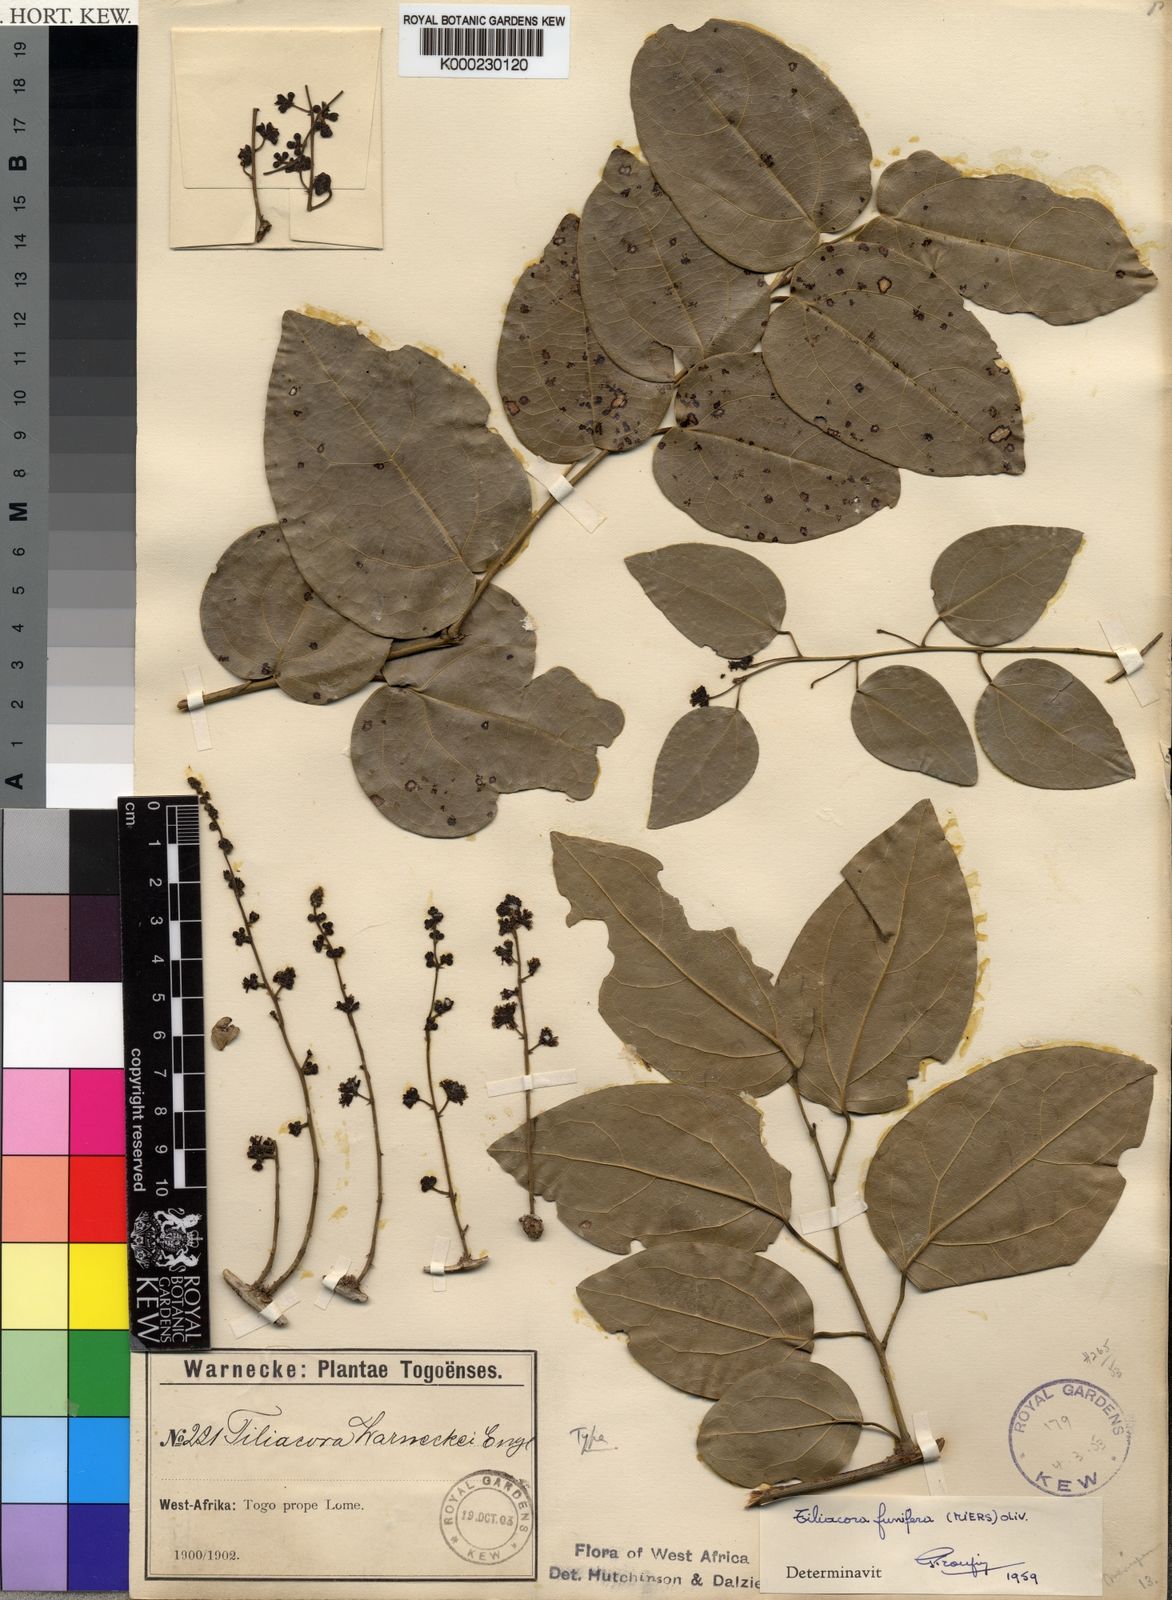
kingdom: Plantae
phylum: Tracheophyta
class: Magnoliopsida
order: Ranunculales
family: Menispermaceae
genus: Tiliacora
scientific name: Tiliacora funifera
